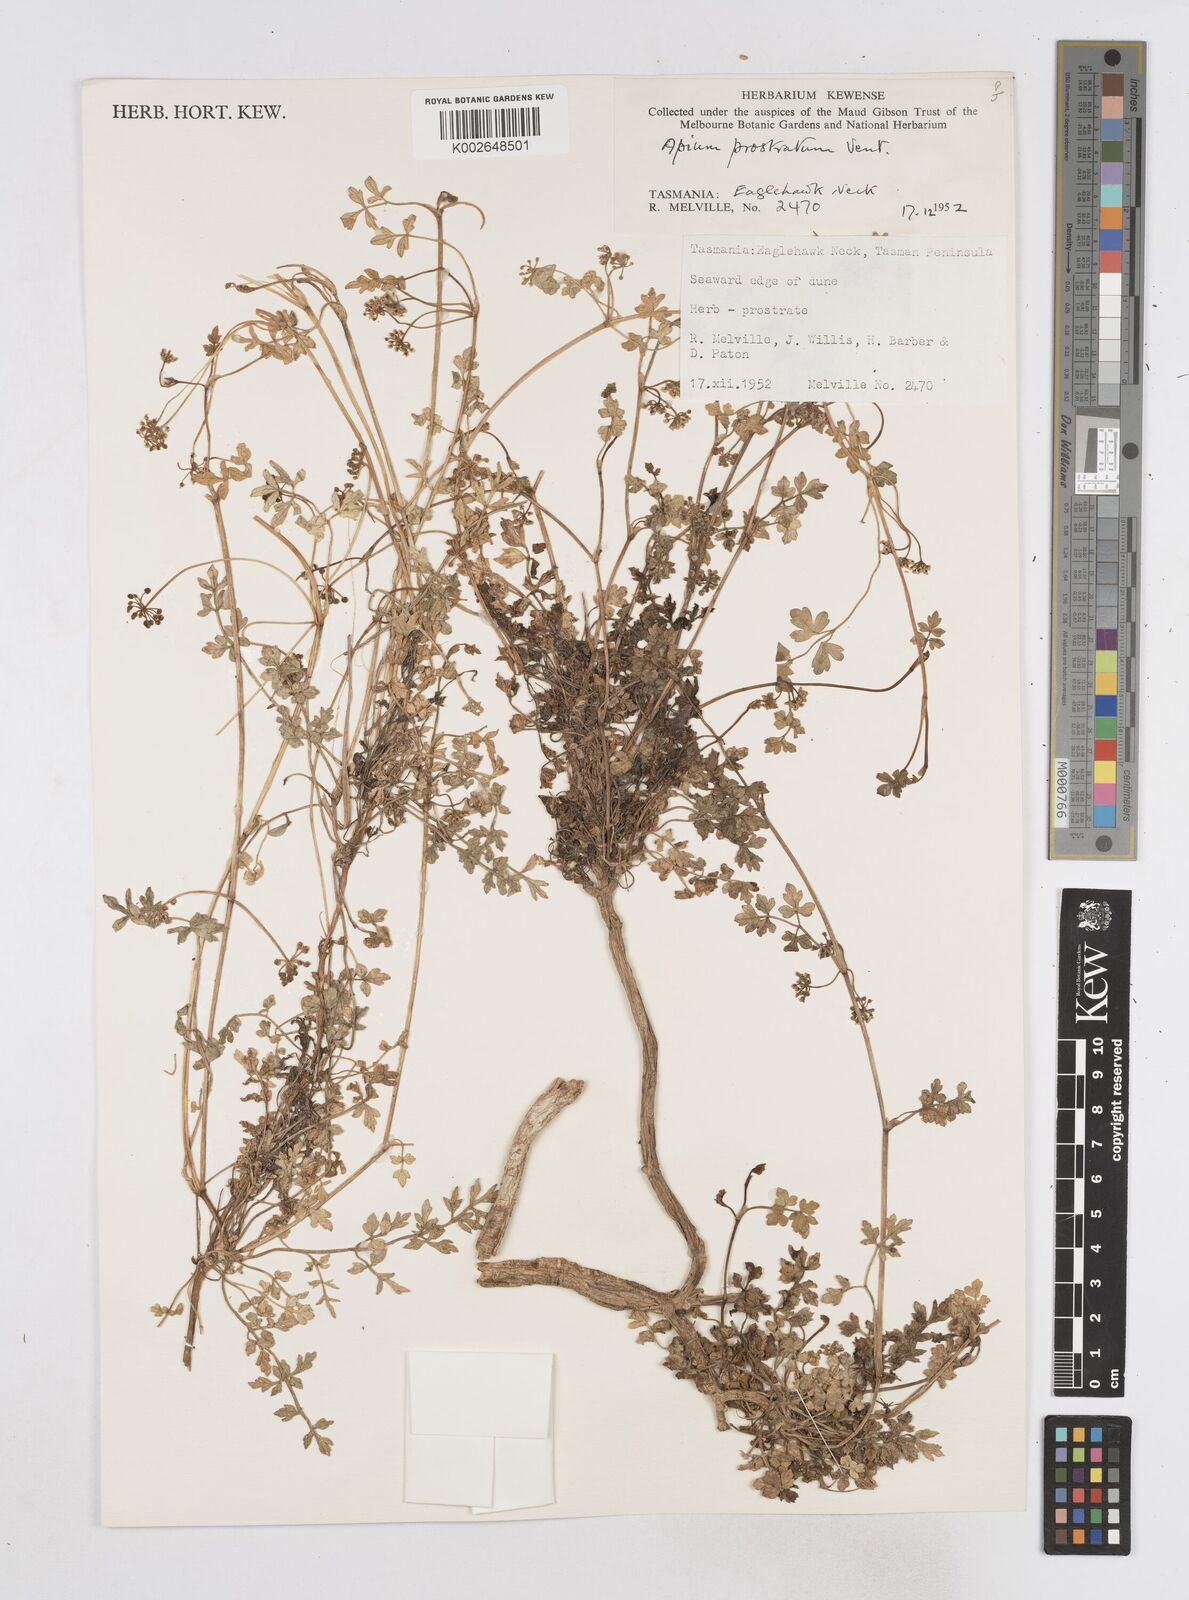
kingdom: Plantae
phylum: Tracheophyta
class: Magnoliopsida
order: Apiales
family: Apiaceae
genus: Apium
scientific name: Apium prostratum
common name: Prostrate marshwort
